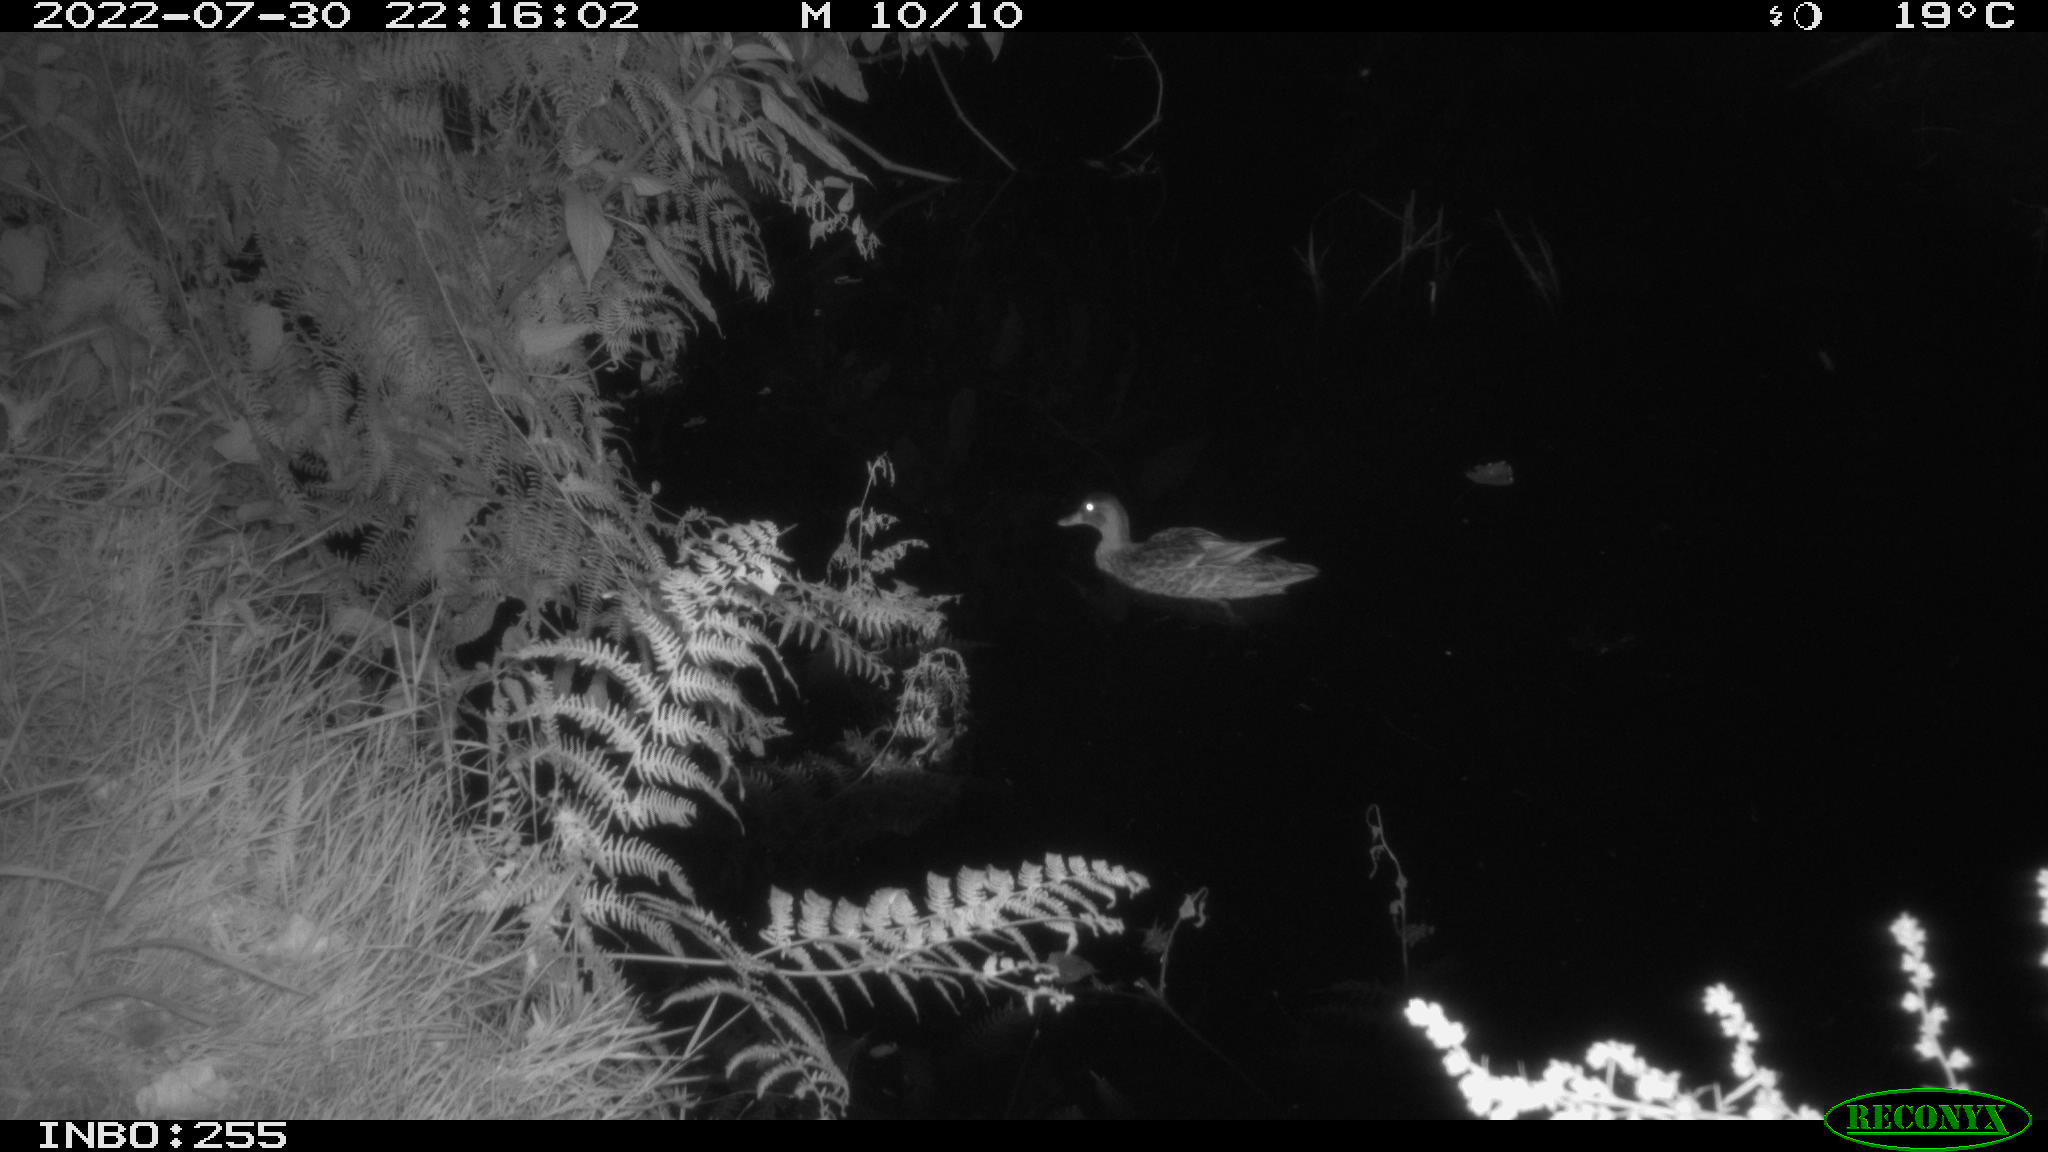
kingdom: Animalia
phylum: Chordata
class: Aves
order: Anseriformes
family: Anatidae
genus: Anas
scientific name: Anas platyrhynchos
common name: Mallard
